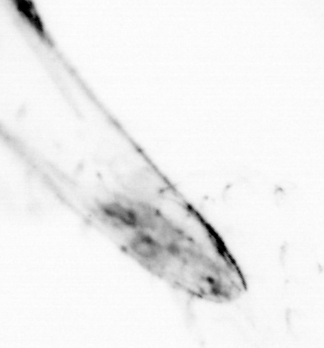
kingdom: Animalia
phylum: Chaetognatha
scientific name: Chaetognatha
